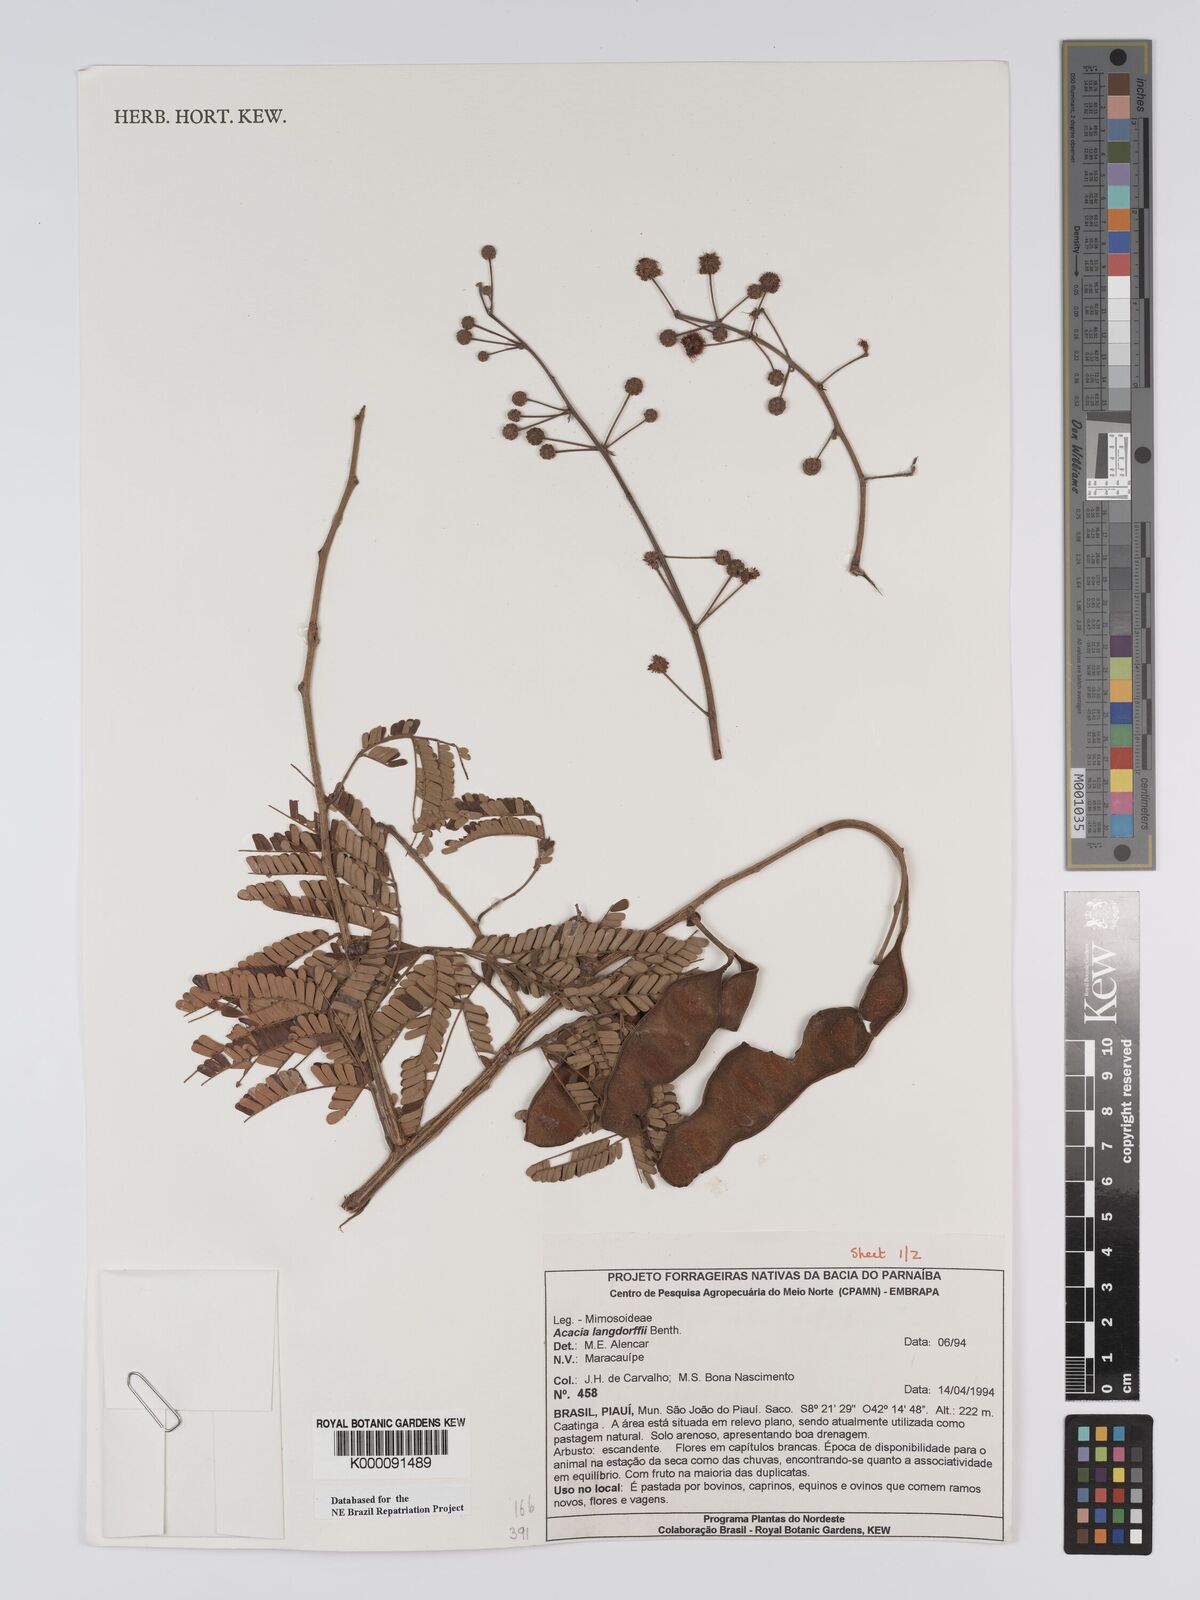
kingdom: Plantae
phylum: Tracheophyta
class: Magnoliopsida
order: Fabales
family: Fabaceae
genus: Senegalia
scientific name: Senegalia langsdorffii
